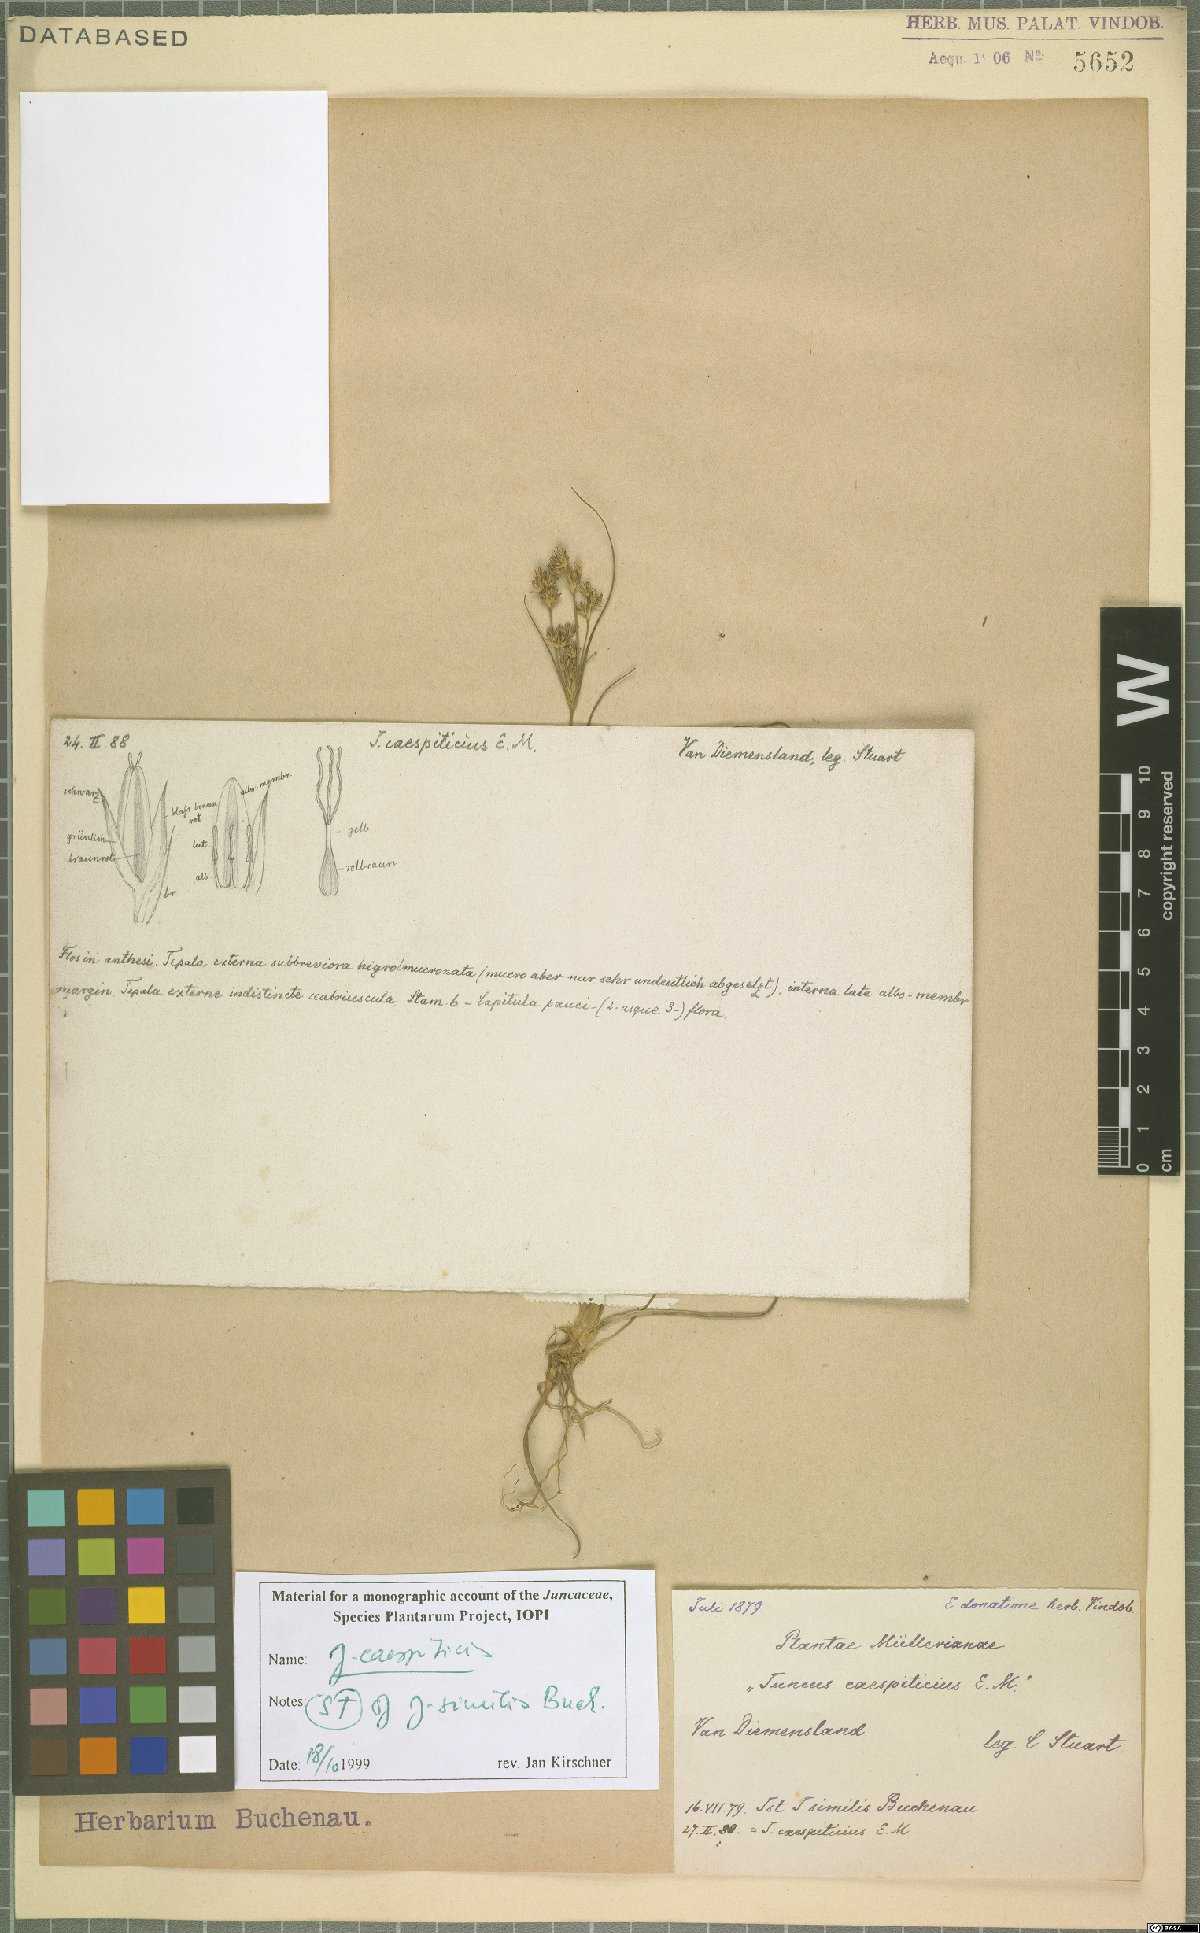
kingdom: Plantae
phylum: Tracheophyta
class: Liliopsida
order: Poales
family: Juncaceae
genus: Juncus
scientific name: Juncus caespiticius
